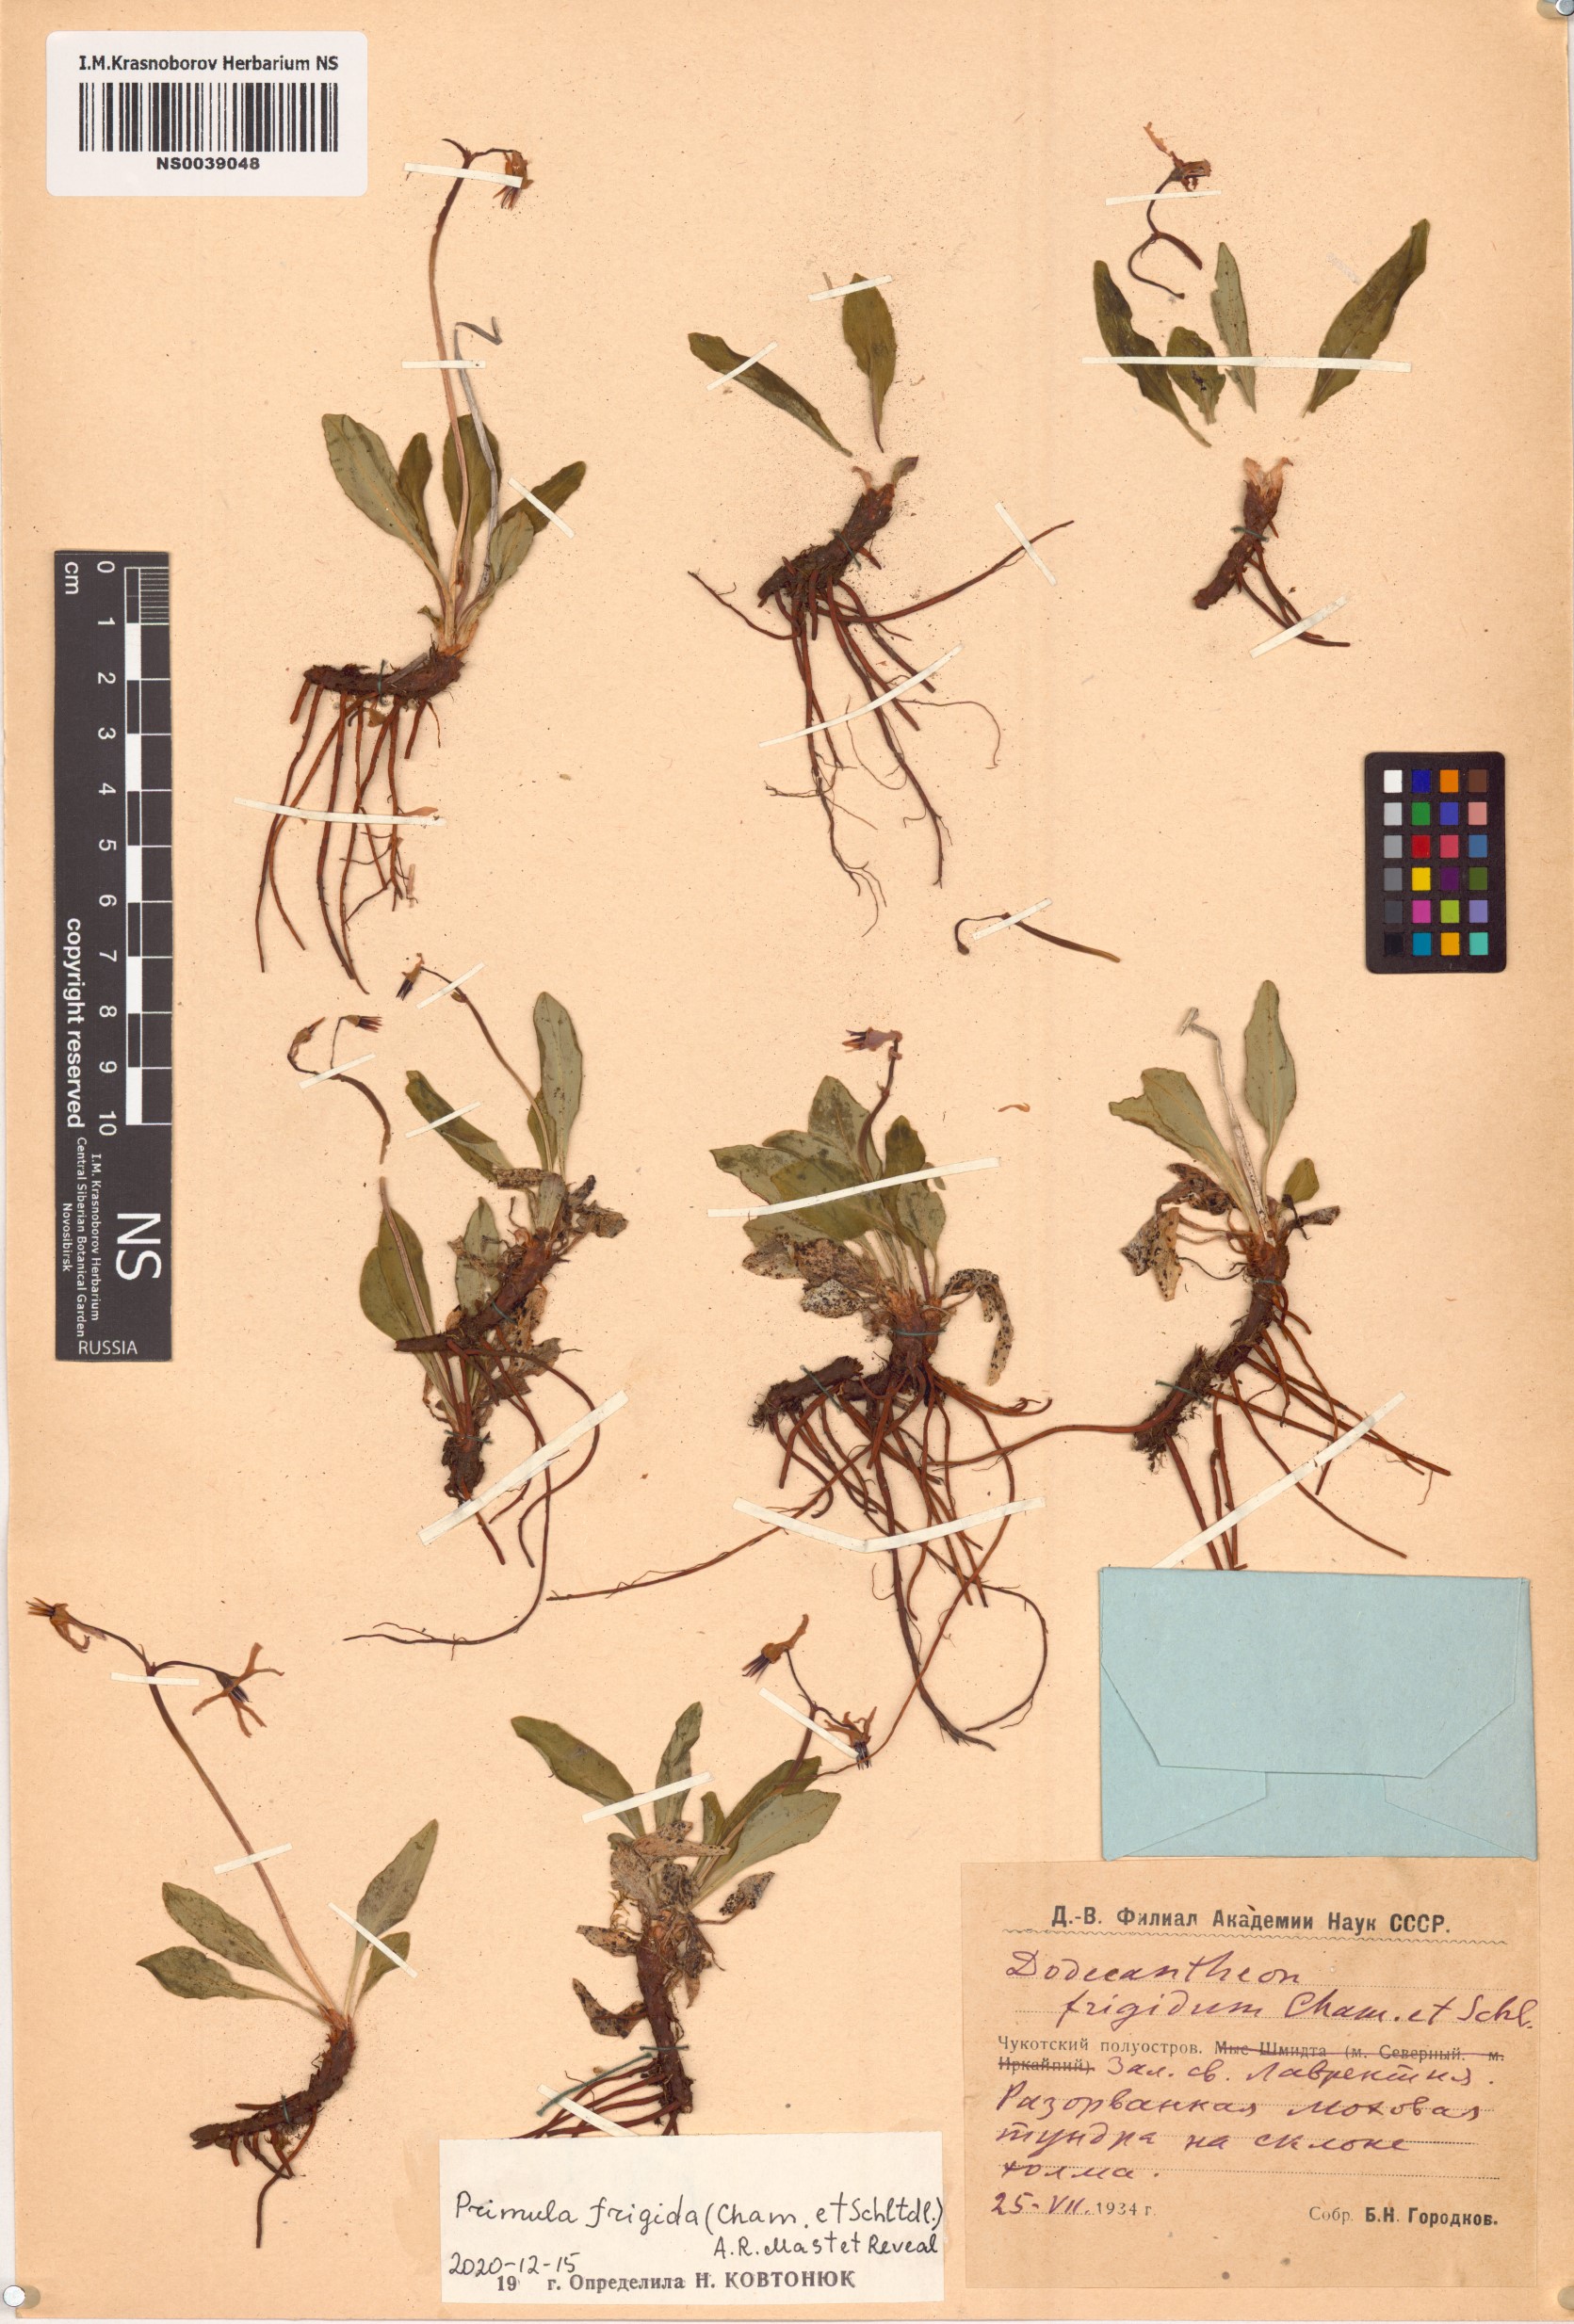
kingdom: Plantae
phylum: Tracheophyta
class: Magnoliopsida
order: Ericales
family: Primulaceae
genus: Dodecatheon
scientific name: Dodecatheon frigidum
